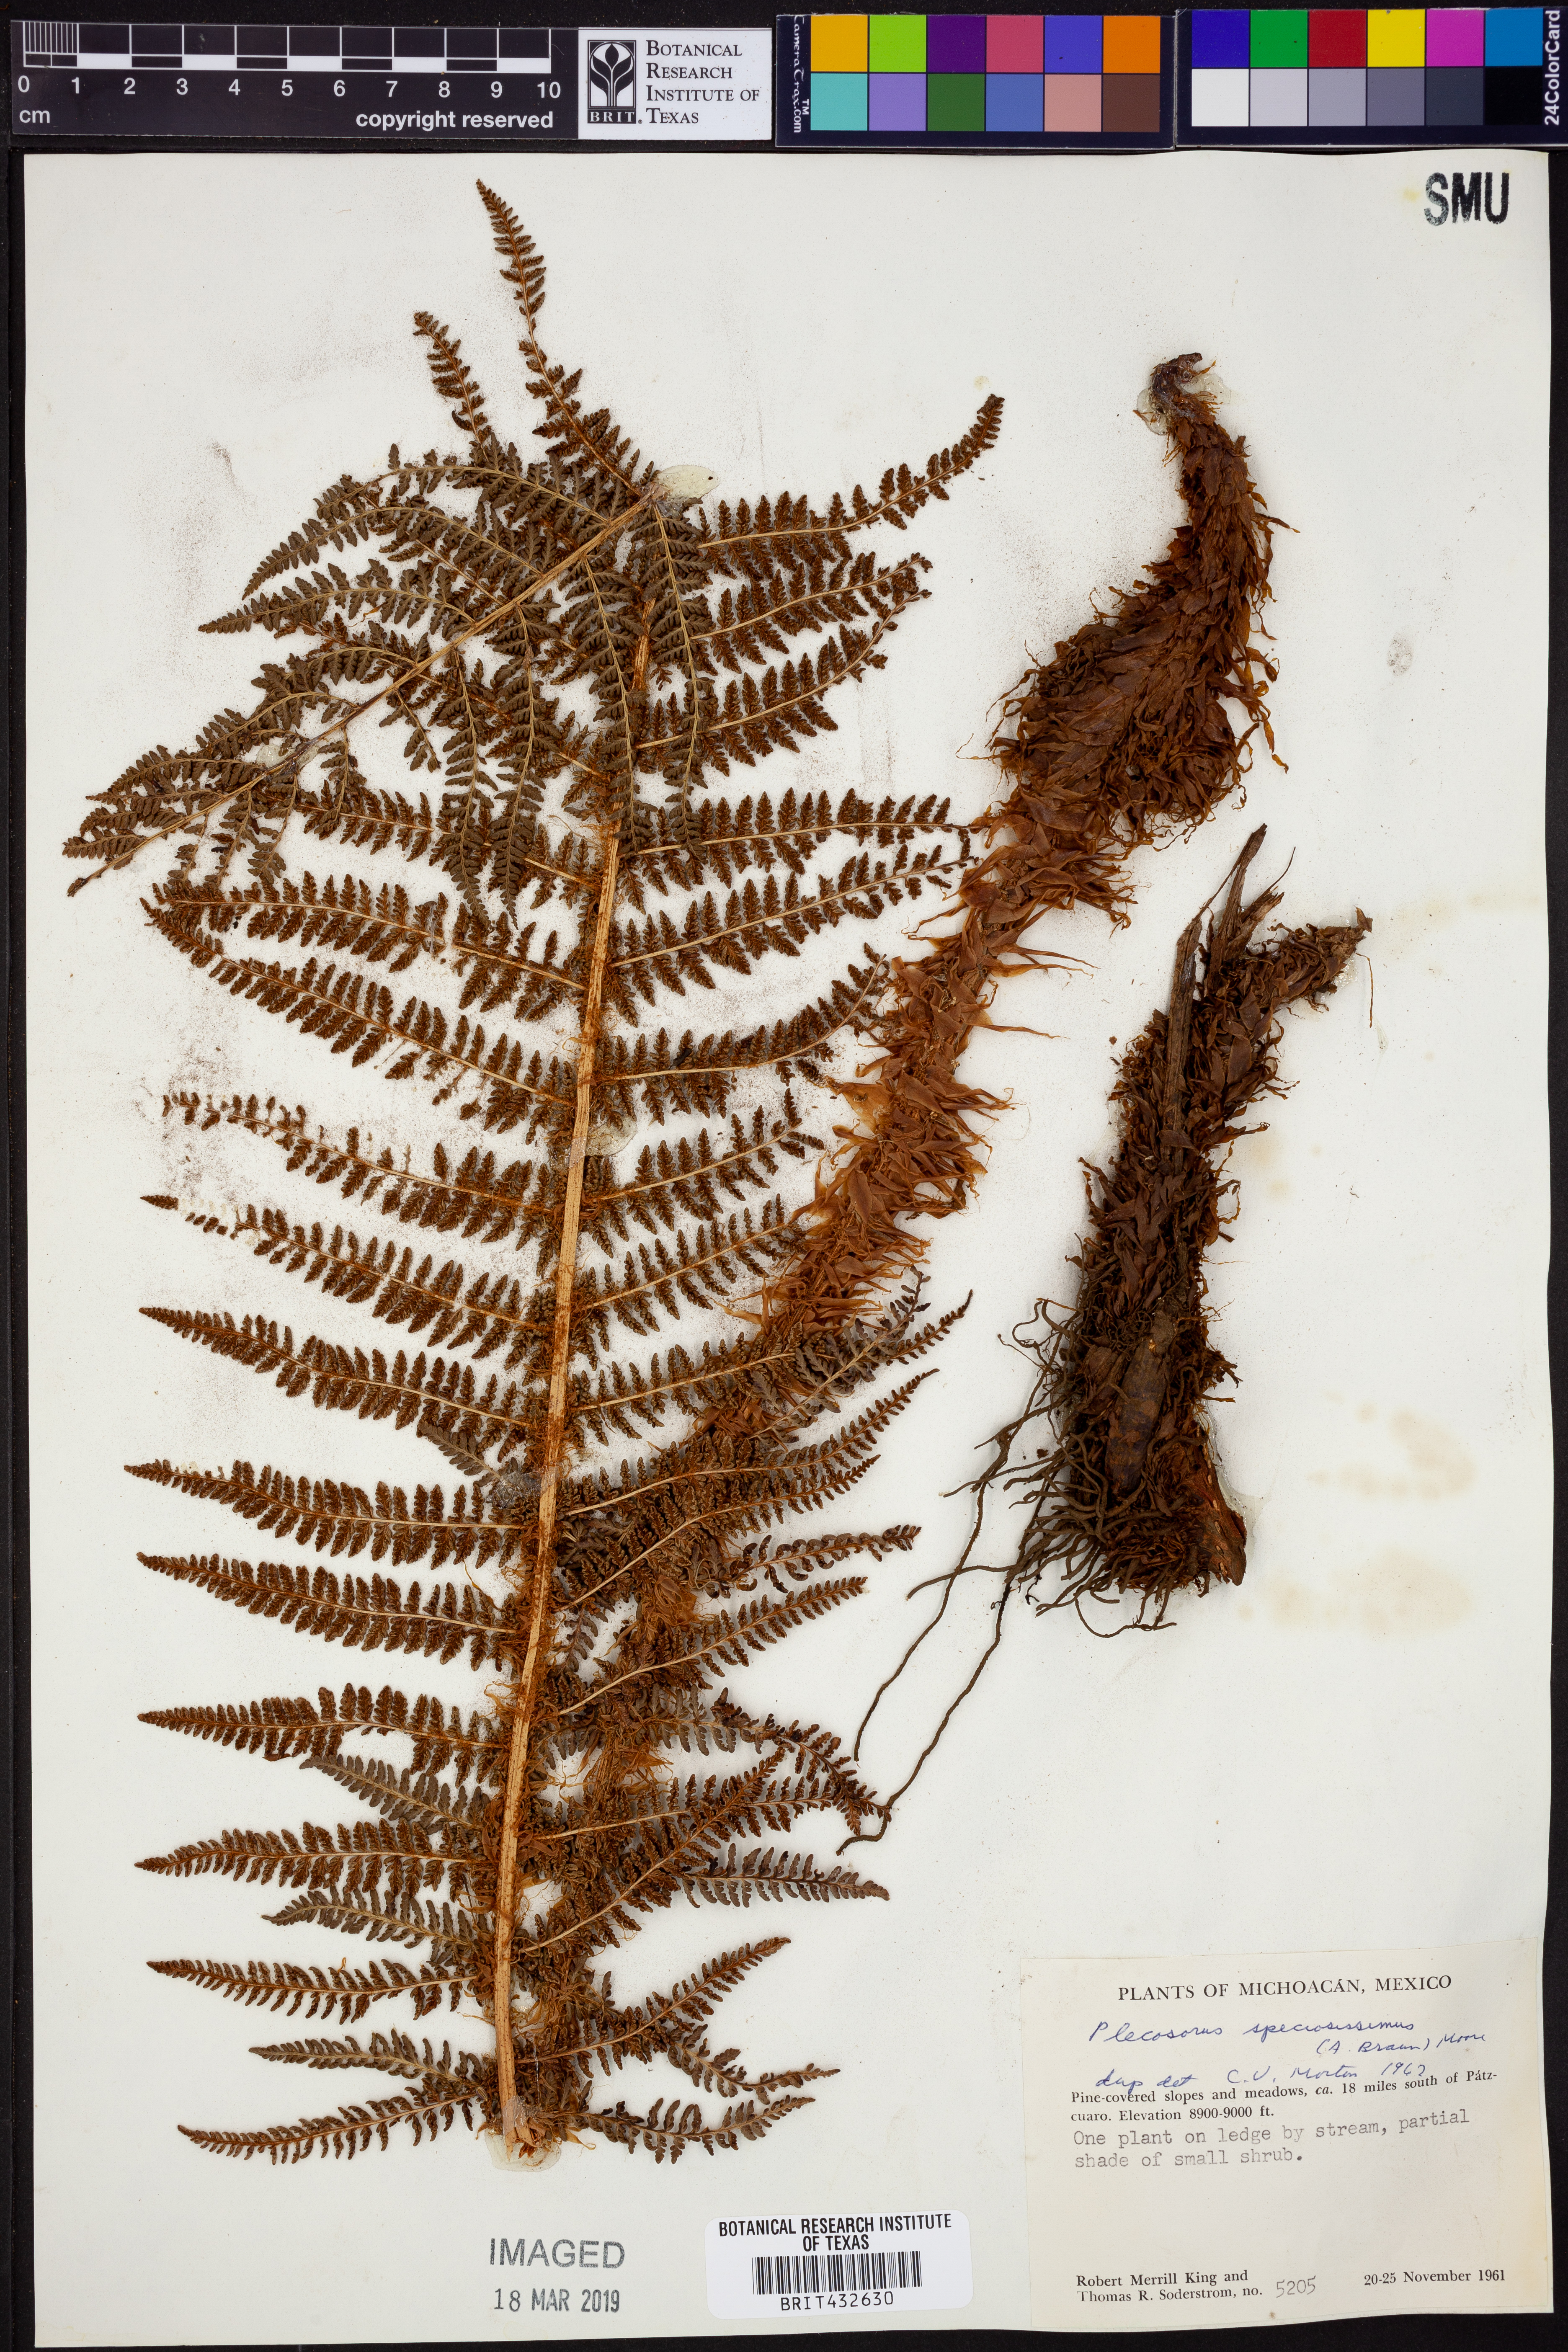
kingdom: Plantae
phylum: Tracheophyta
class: Polypodiopsida
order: Polypodiales
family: Dryopteridaceae
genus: Polystichum
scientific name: Polystichum speciosissimum
